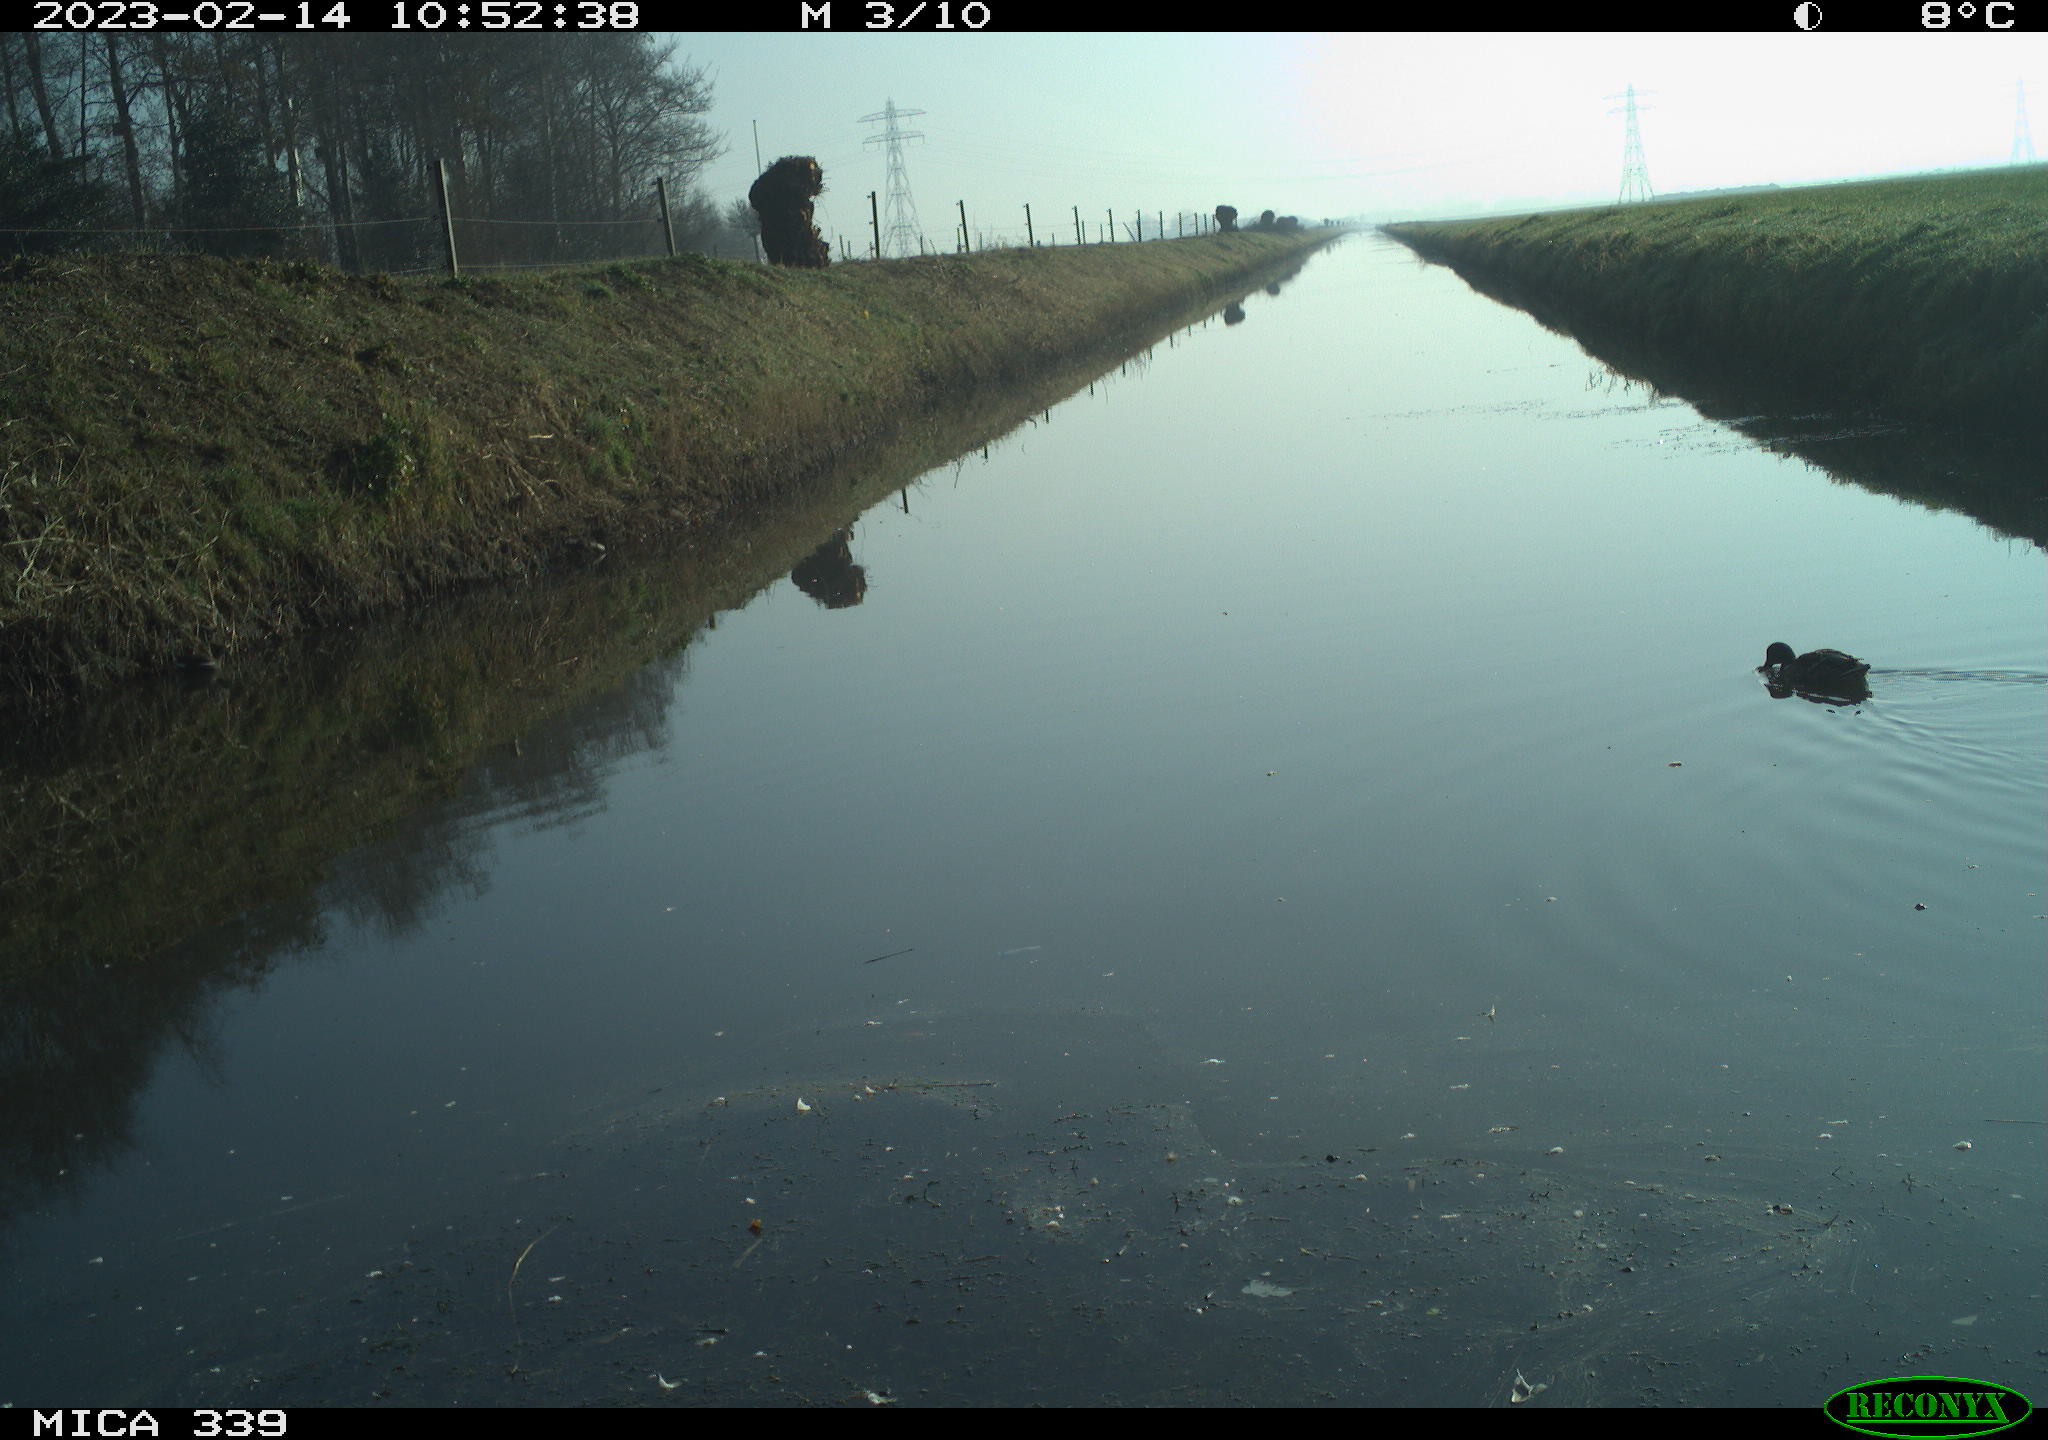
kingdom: Animalia
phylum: Chordata
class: Aves
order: Anseriformes
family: Anatidae
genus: Anas
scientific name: Anas
